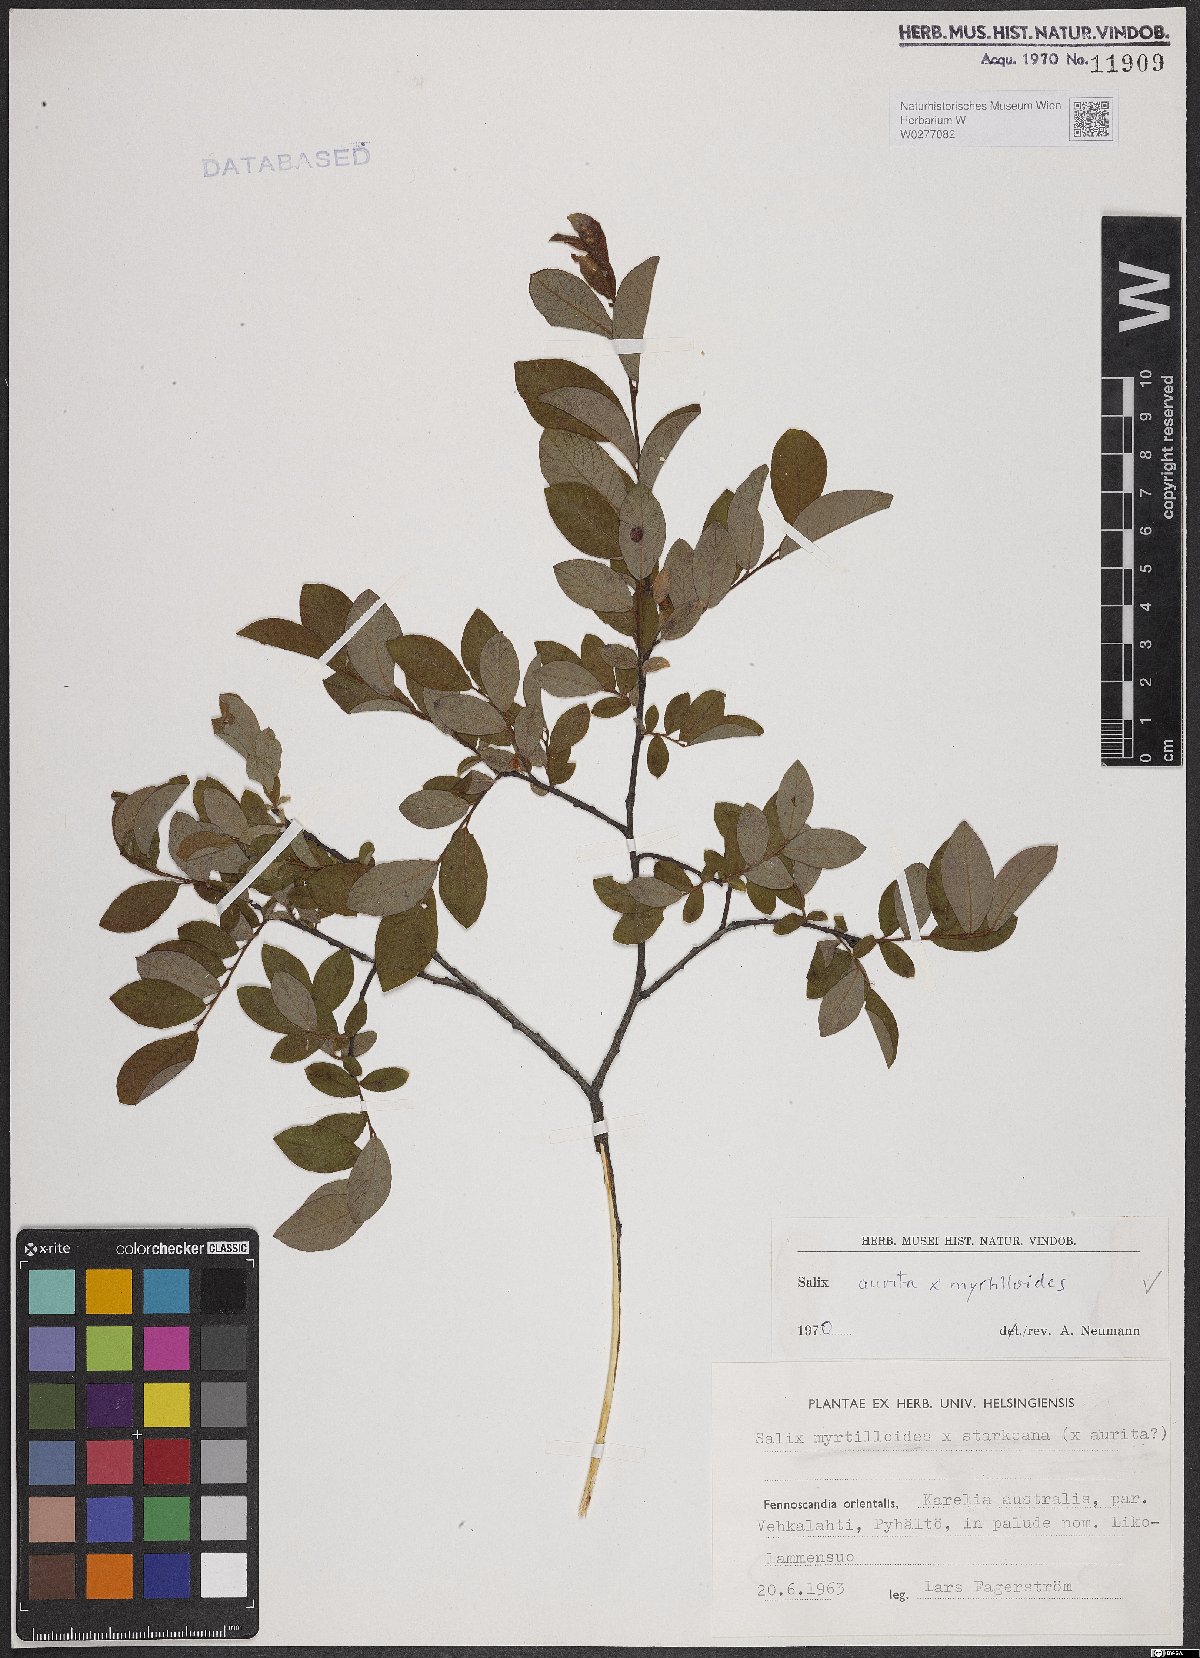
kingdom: Plantae
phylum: Tracheophyta
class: Magnoliopsida
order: Malpighiales
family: Salicaceae
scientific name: Salicaceae
